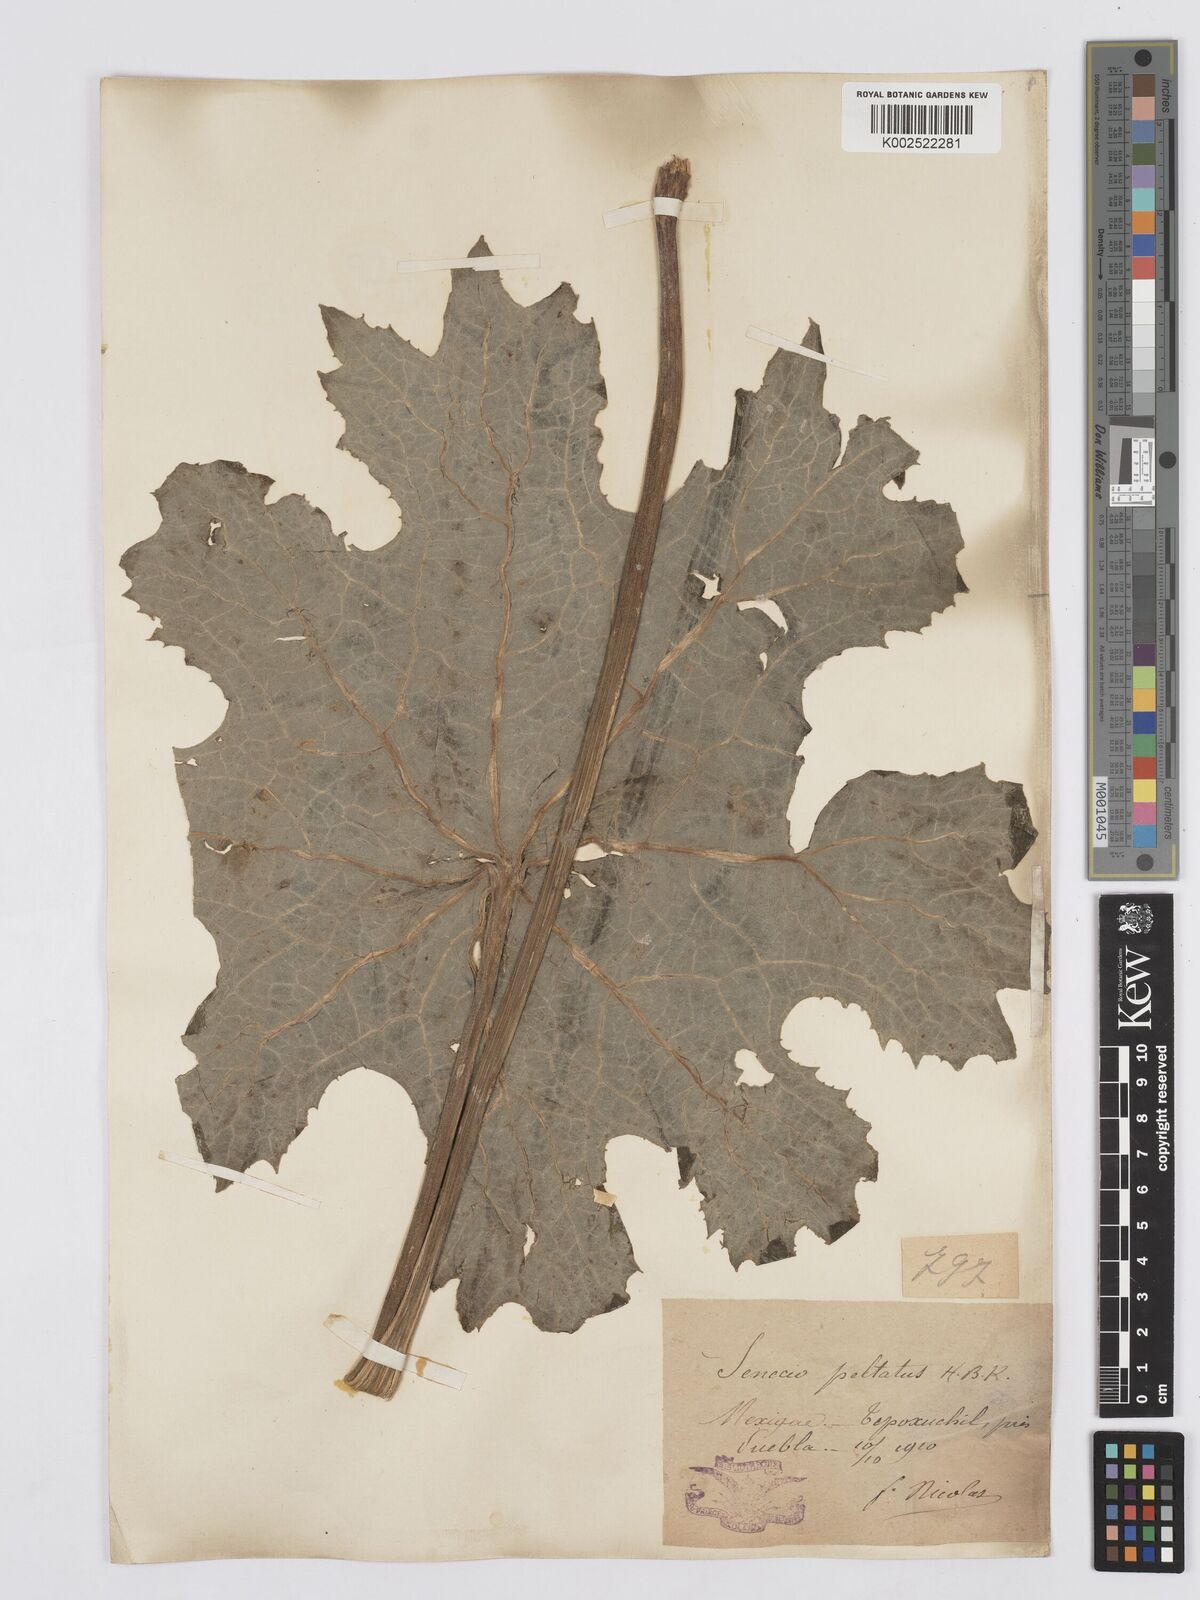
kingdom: Plantae
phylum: Tracheophyta
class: Magnoliopsida
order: Asterales
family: Asteraceae
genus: Psacalium
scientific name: Psacalium peltatum
